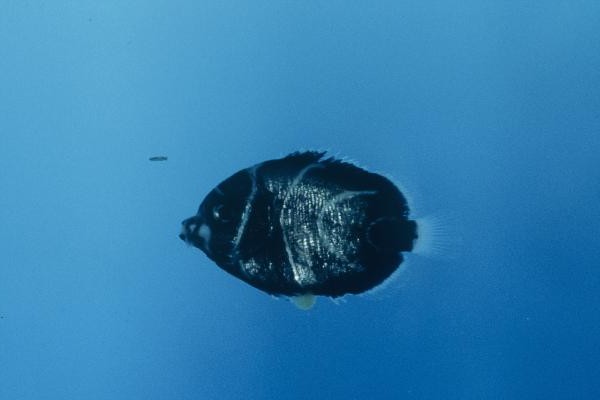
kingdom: Animalia
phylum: Chordata
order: Perciformes
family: Pomacanthidae
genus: Pomacanthus
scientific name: Pomacanthus semicirculatus
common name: Semicircle angelfish
